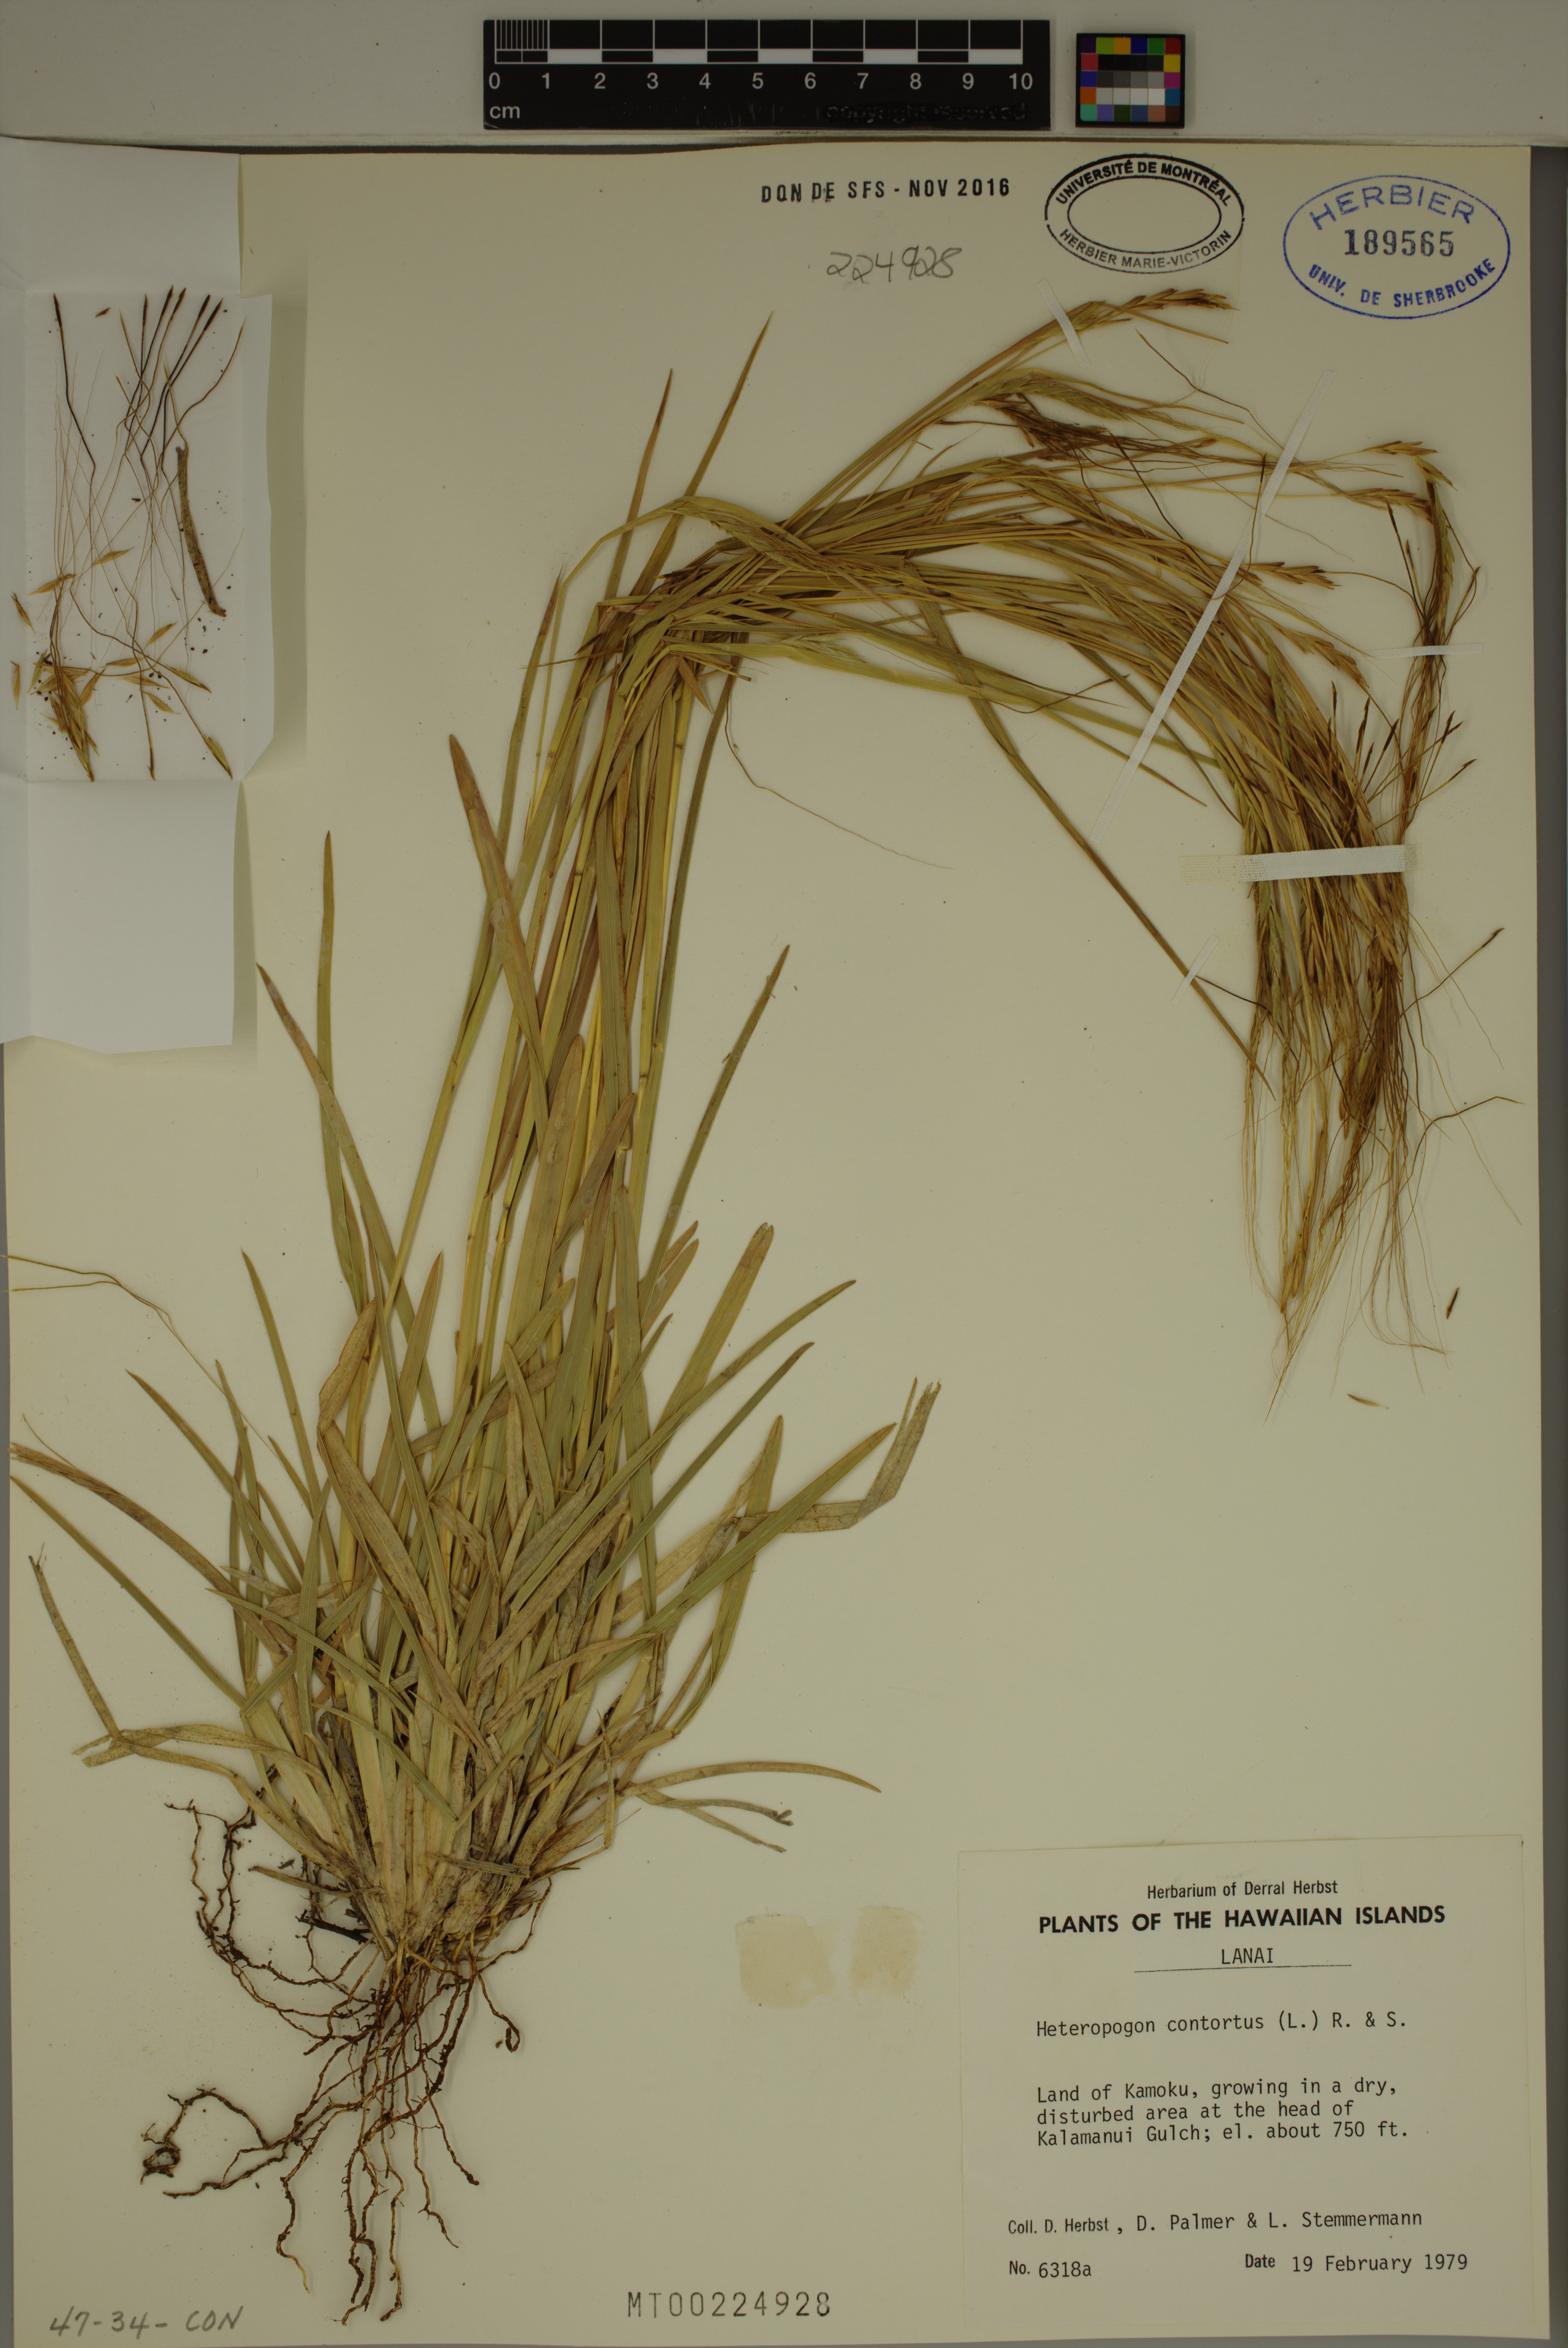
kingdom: Plantae
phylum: Tracheophyta
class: Liliopsida
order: Poales
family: Poaceae
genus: Heteropogon
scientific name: Heteropogon contortus
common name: Tanglehead
